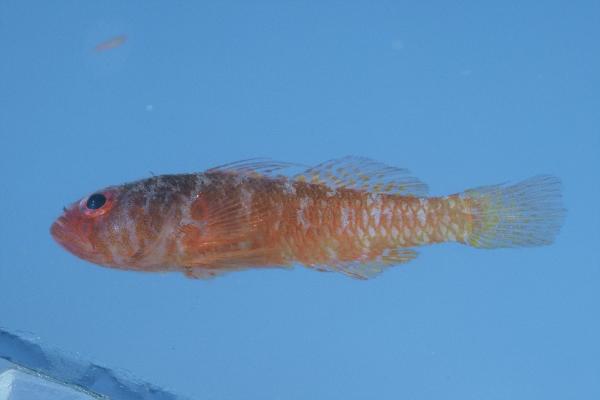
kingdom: Animalia
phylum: Chordata
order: Perciformes
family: Gobiidae
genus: Trimma
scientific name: Trimma mendelssohni
